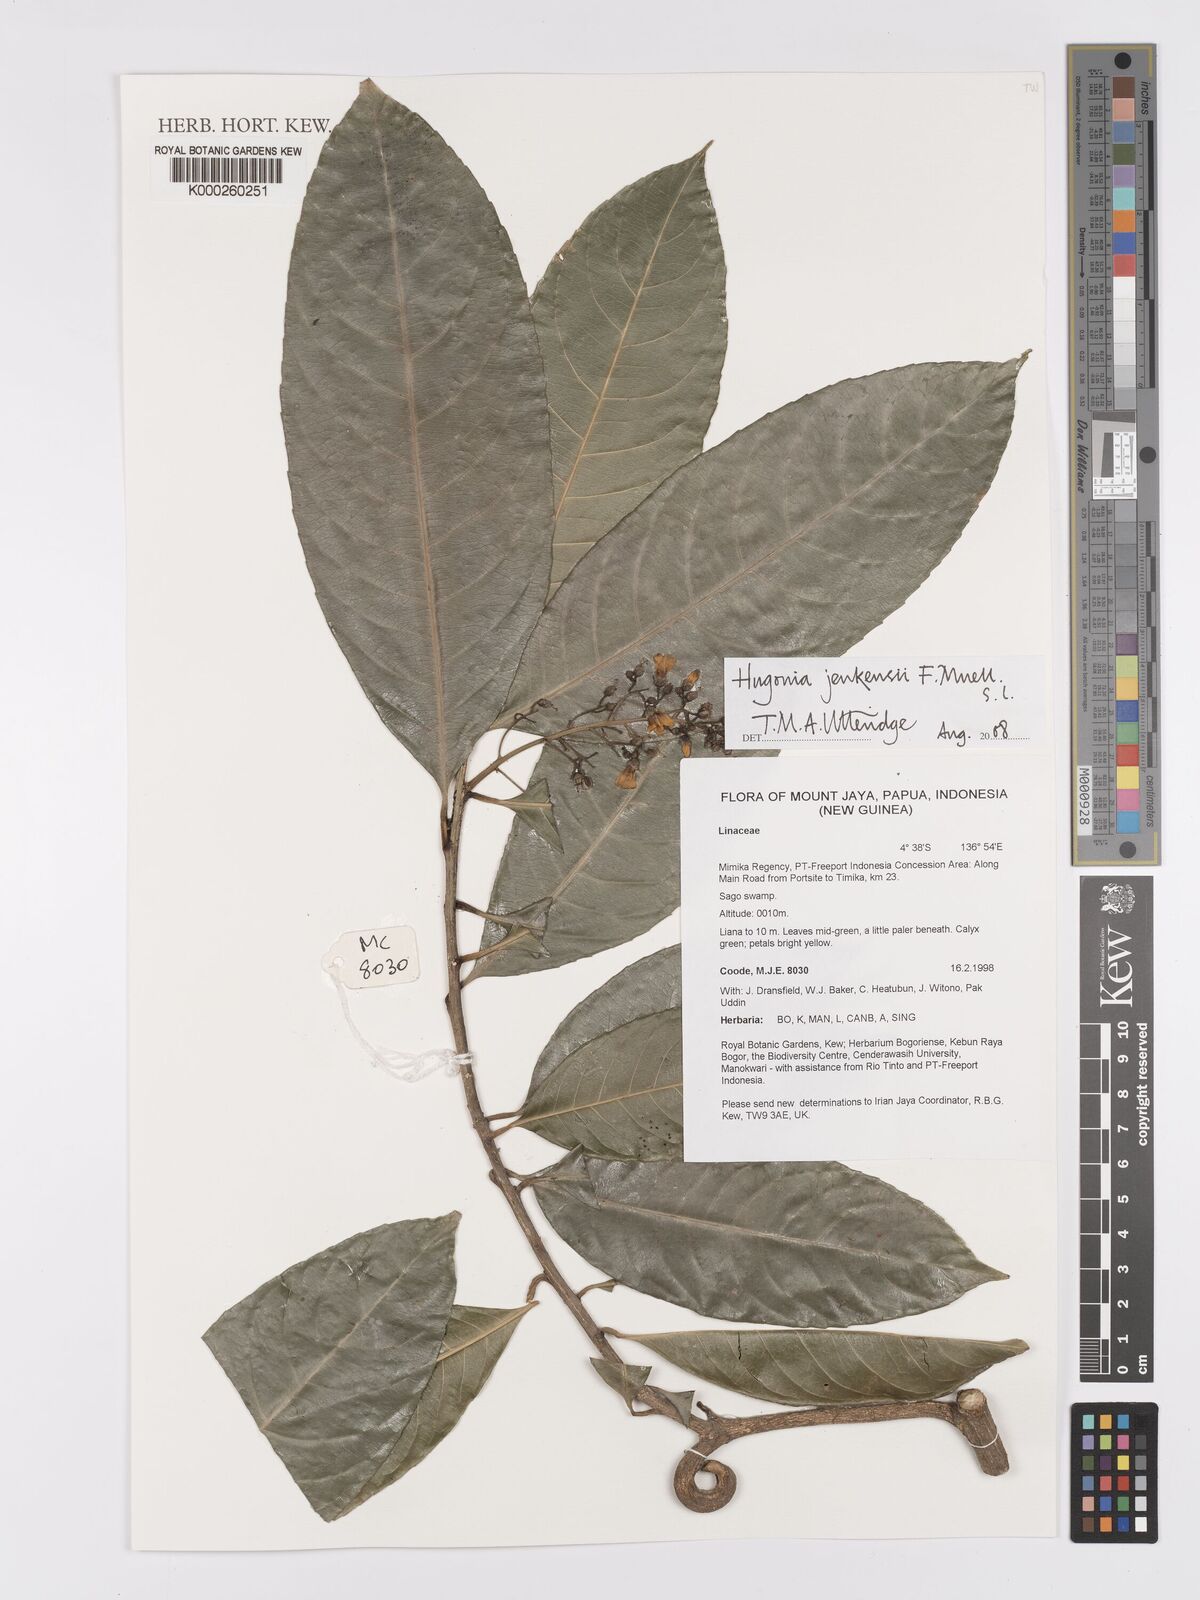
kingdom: Plantae
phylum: Tracheophyta
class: Magnoliopsida
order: Malpighiales
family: Linaceae
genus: Hugonia
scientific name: Hugonia
